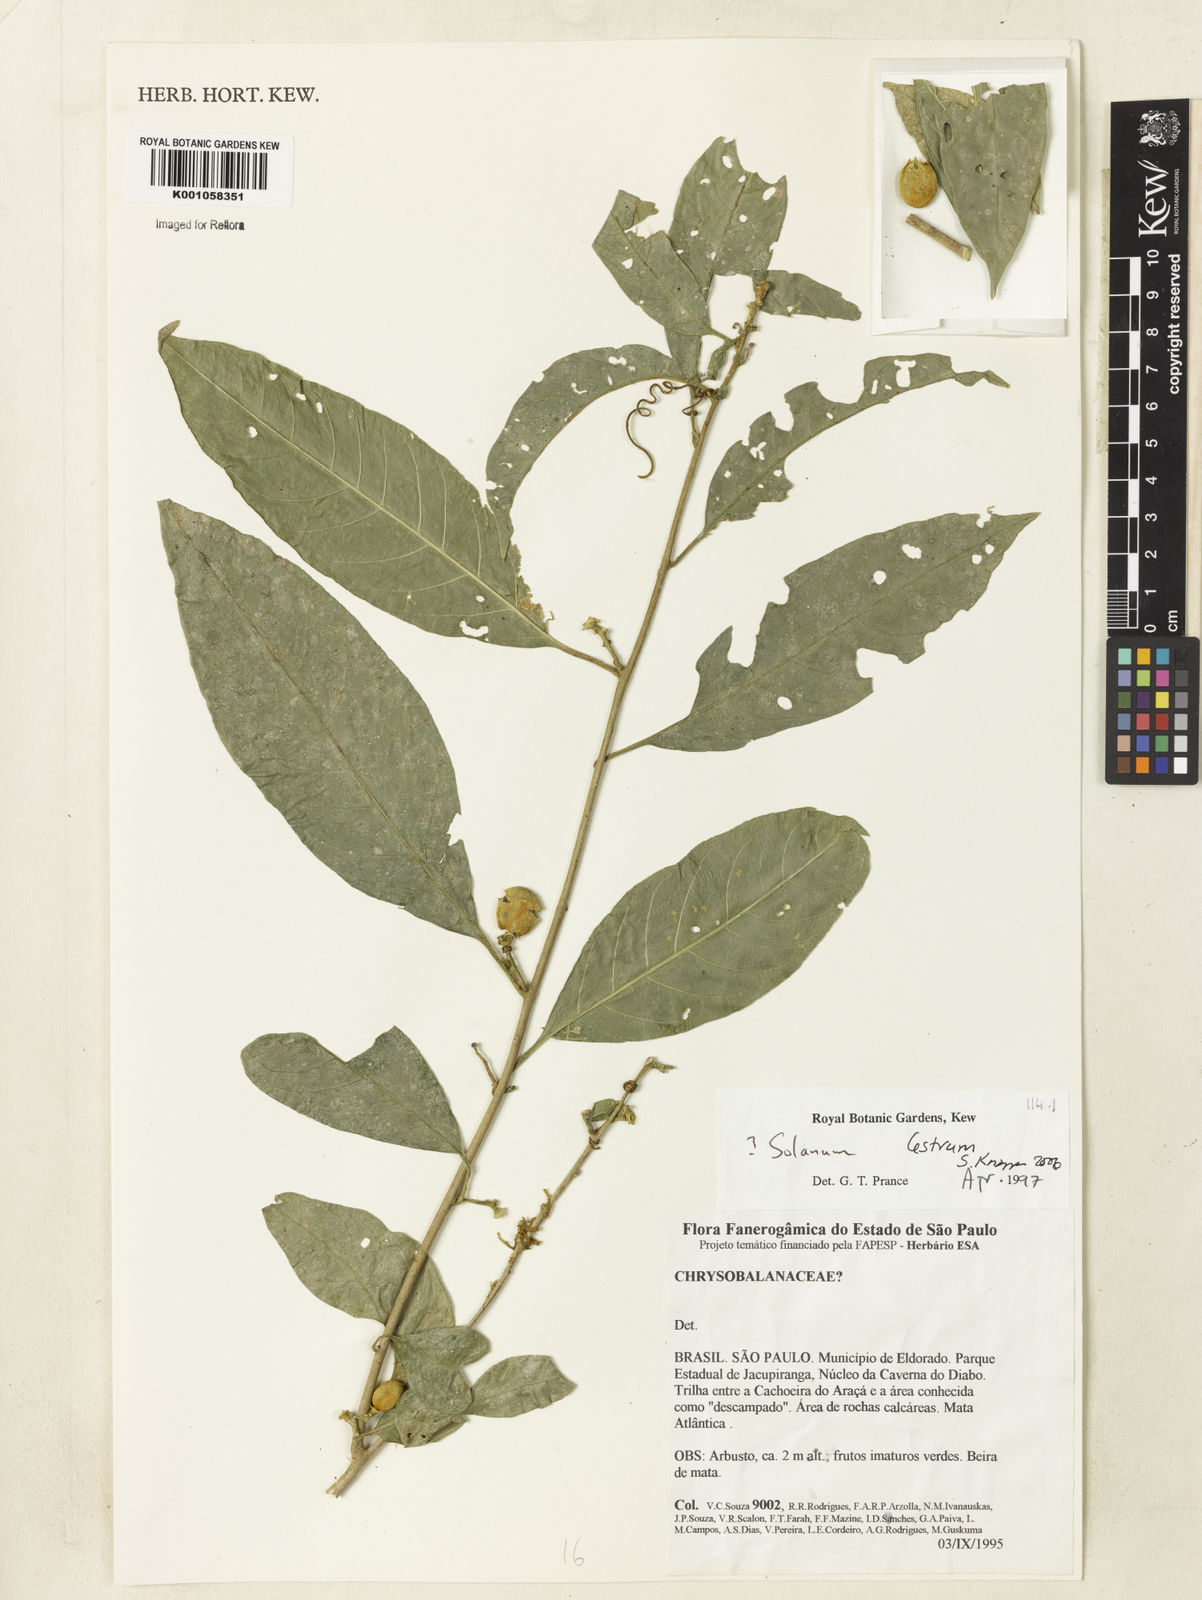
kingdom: Plantae
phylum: Tracheophyta
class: Magnoliopsida
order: Solanales
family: Solanaceae
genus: Solanum
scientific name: Solanum
